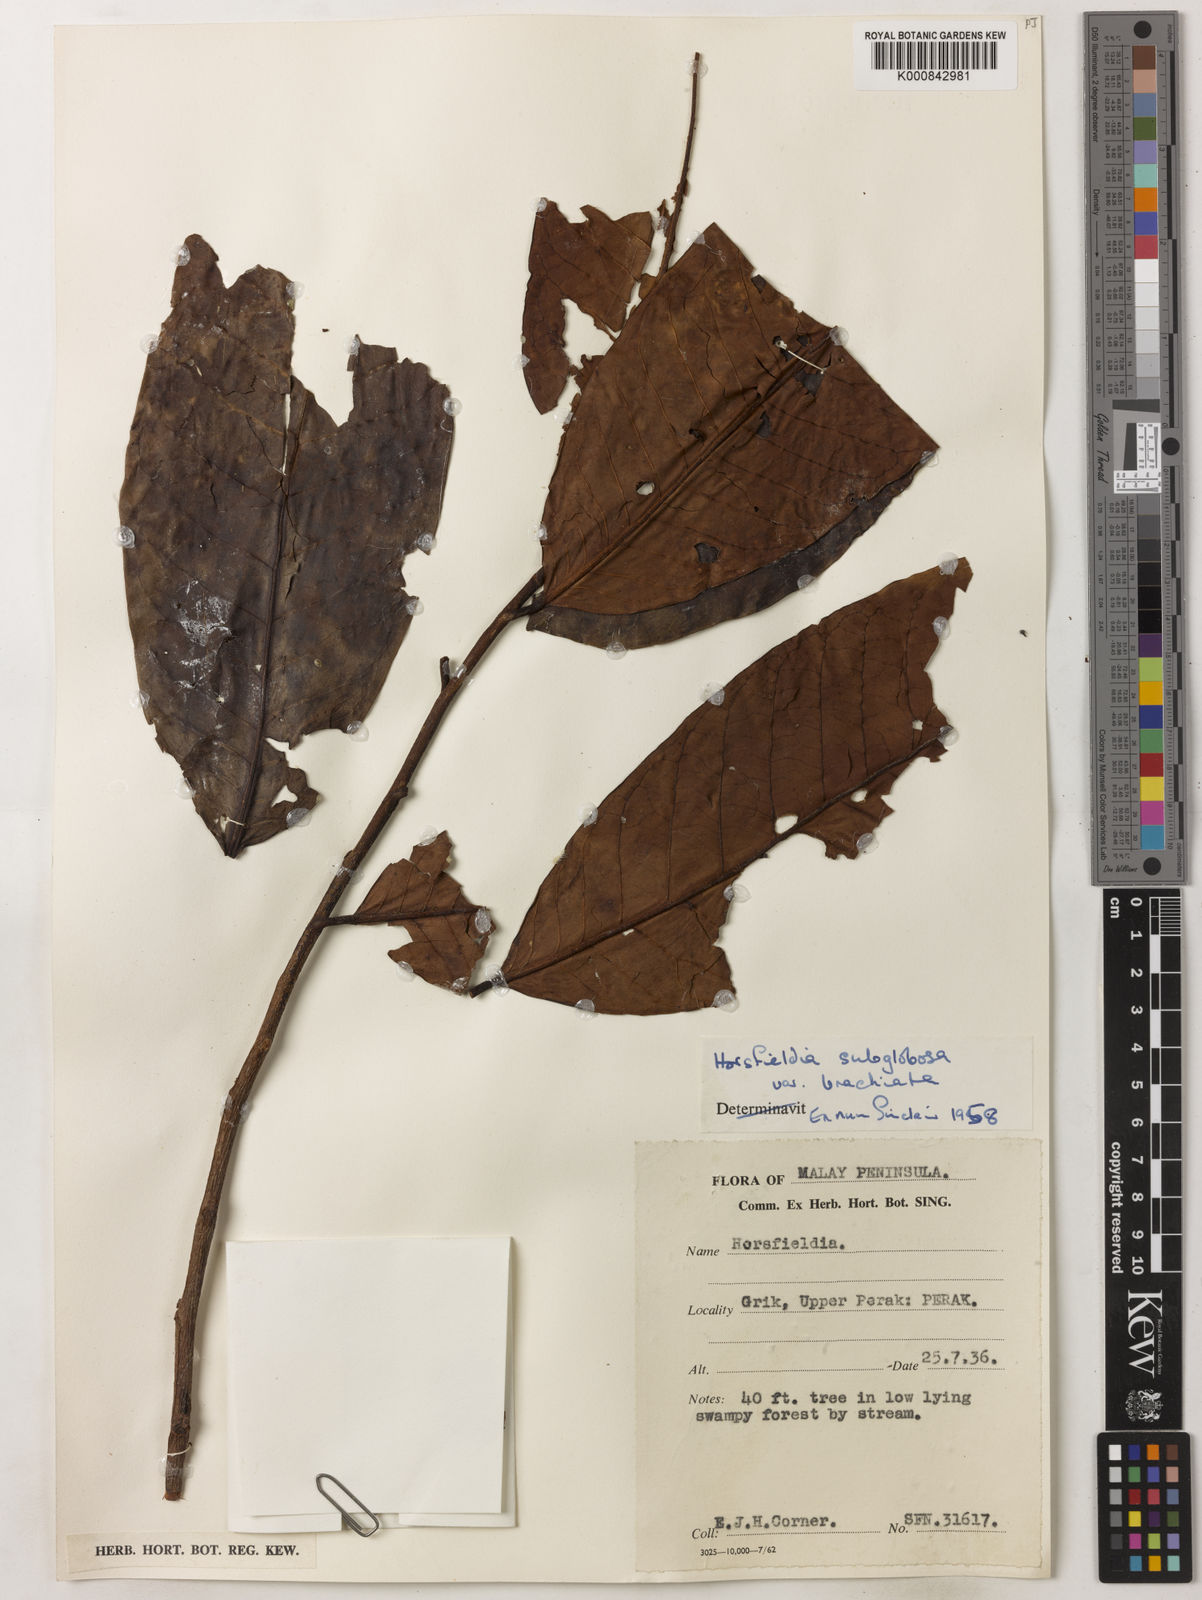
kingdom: Plantae
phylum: Tracheophyta
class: Magnoliopsida
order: Magnoliales
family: Myristicaceae
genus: Horsfieldia
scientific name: Horsfieldia brachiata
